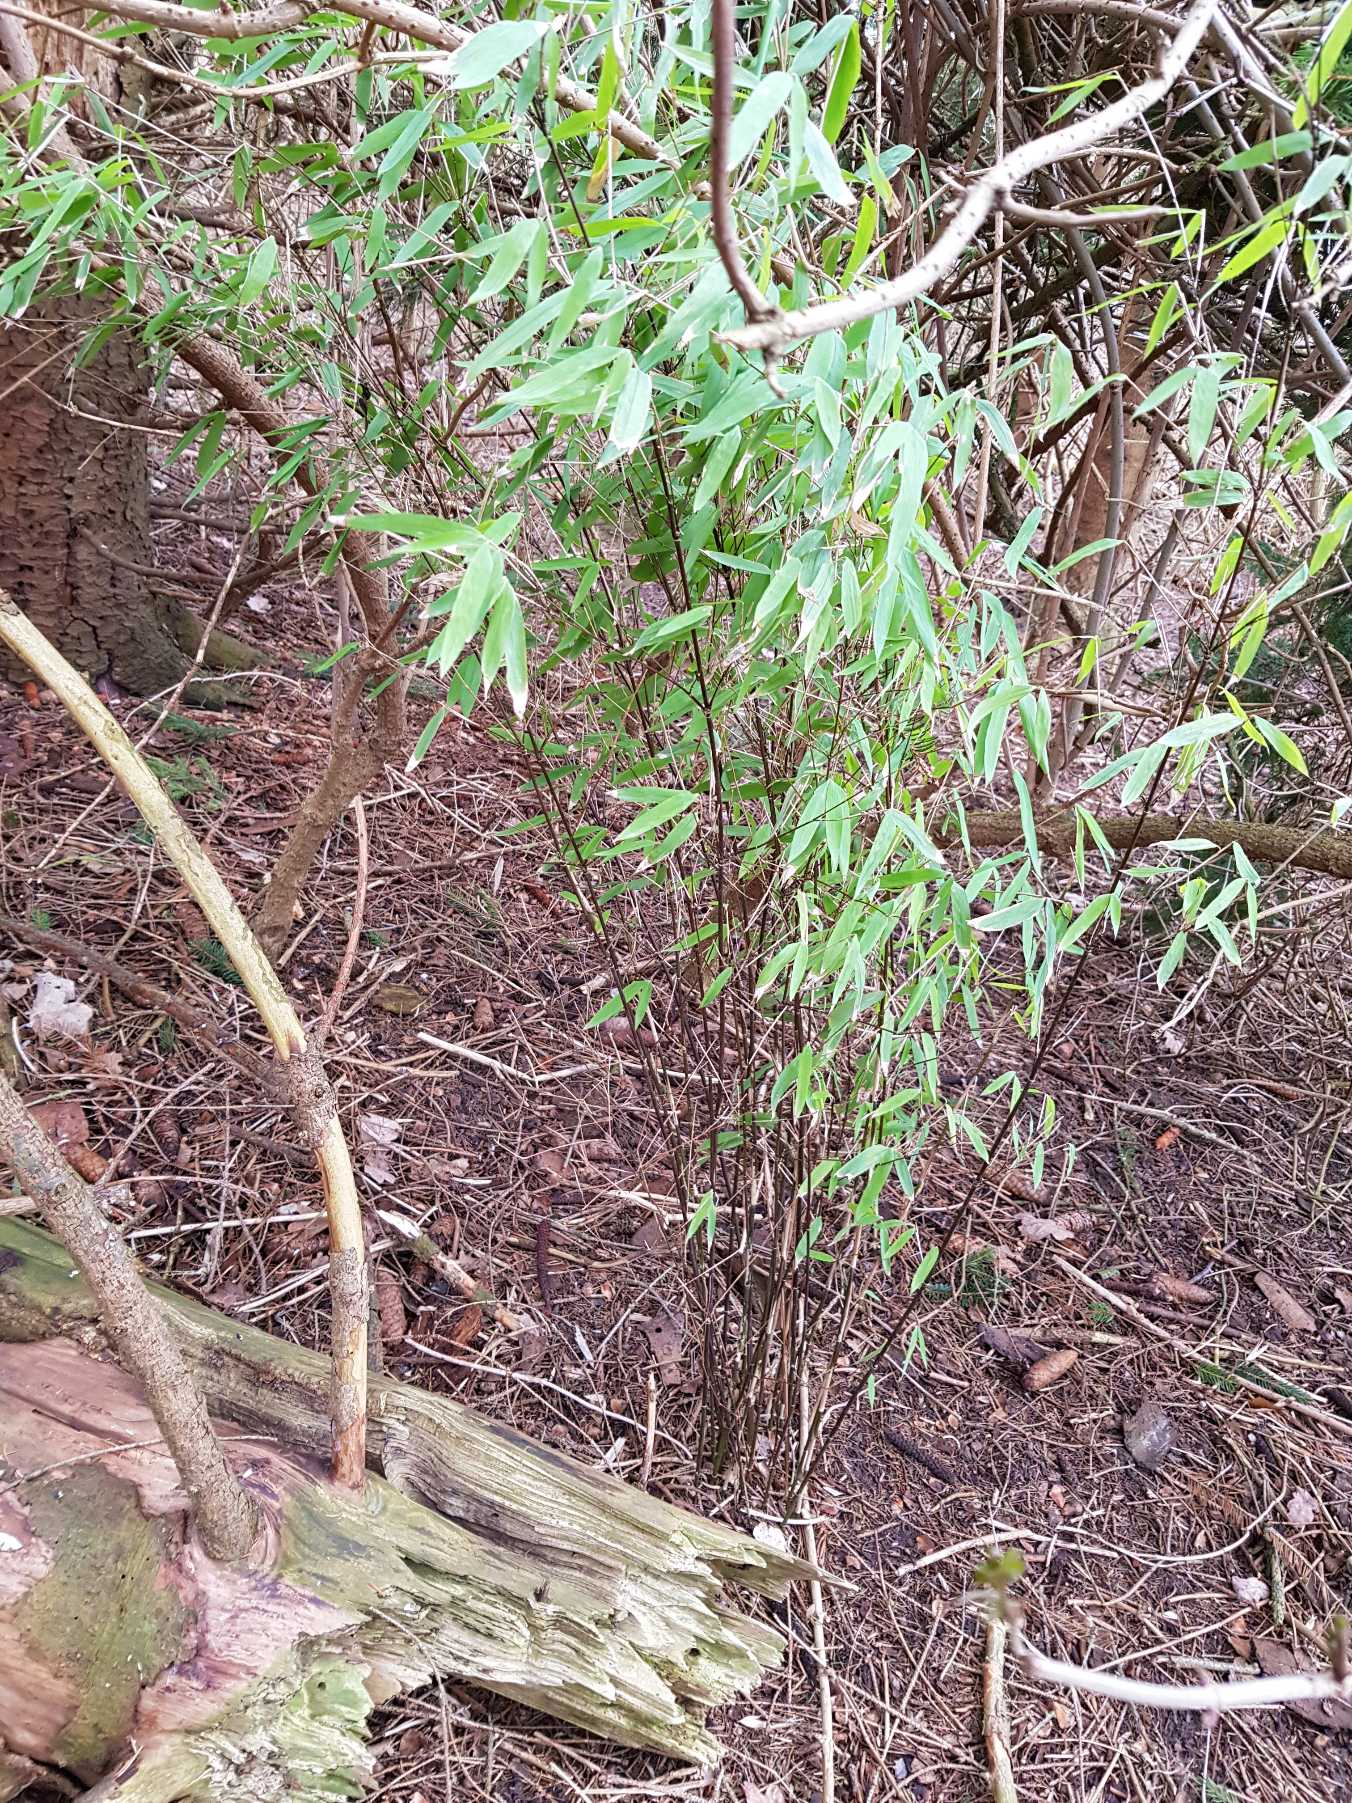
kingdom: Plantae
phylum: Tracheophyta
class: Liliopsida
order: Poales
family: Poaceae
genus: Fargesia
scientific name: Fargesia spathacea
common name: Sort bambus
